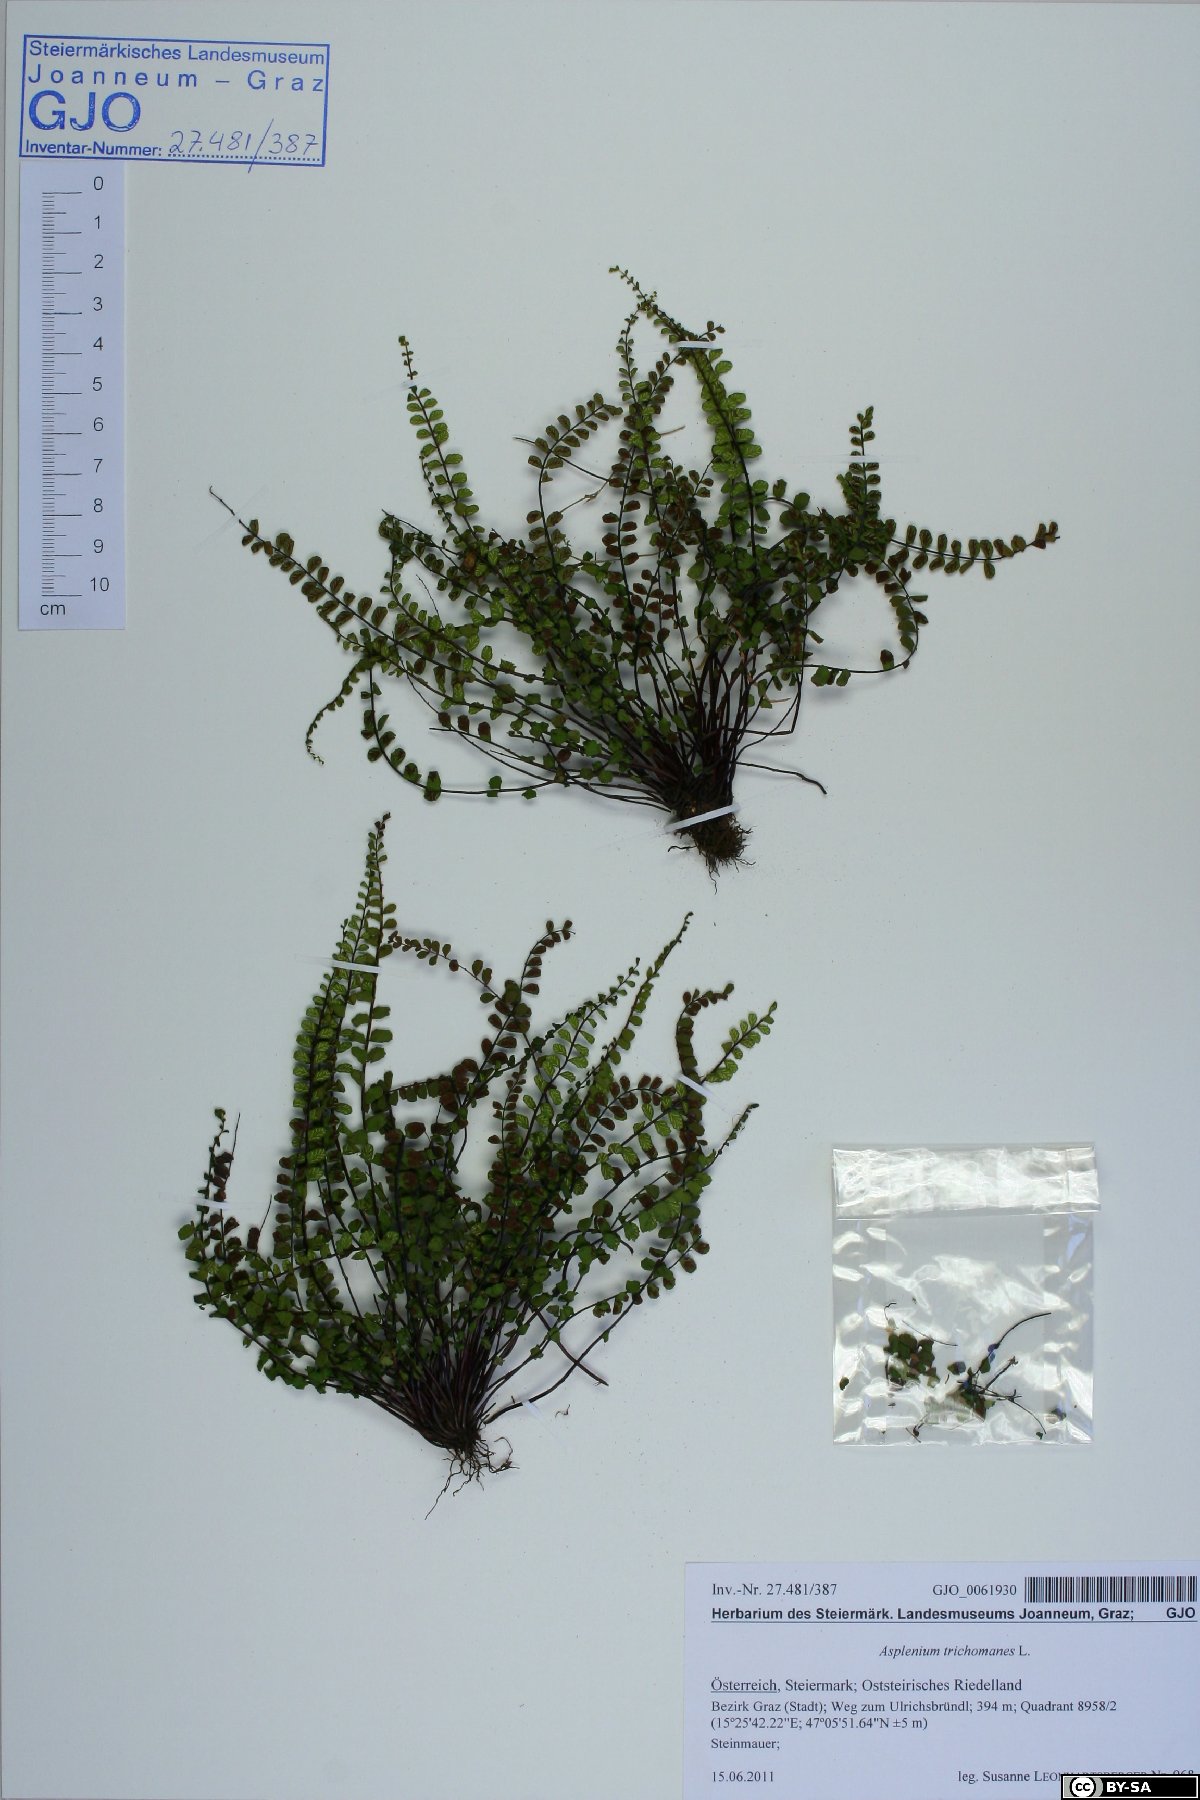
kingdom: Plantae
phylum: Tracheophyta
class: Polypodiopsida
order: Polypodiales
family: Aspleniaceae
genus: Asplenium
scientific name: Asplenium trichomanes
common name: Maidenhair spleenwort
